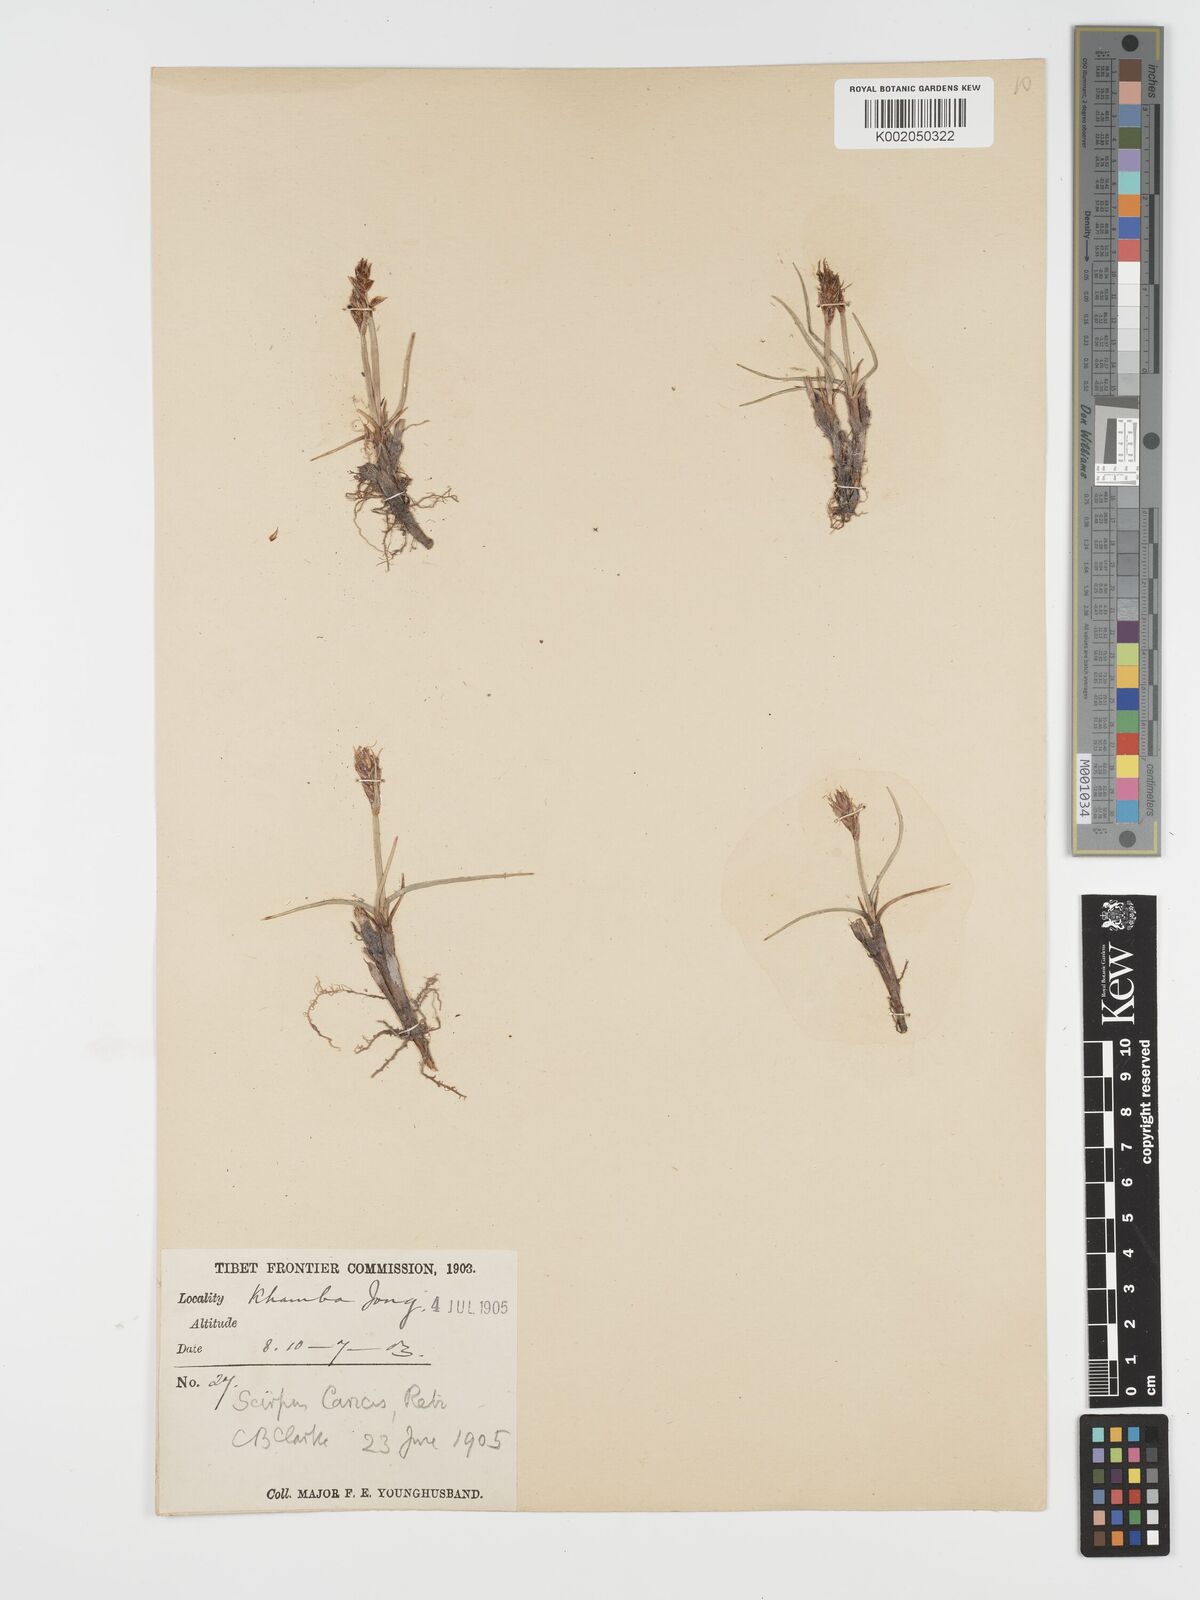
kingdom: Plantae
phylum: Tracheophyta
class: Liliopsida
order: Poales
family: Cyperaceae
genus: Blysmus
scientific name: Blysmus compressus
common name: Flat-sedge
